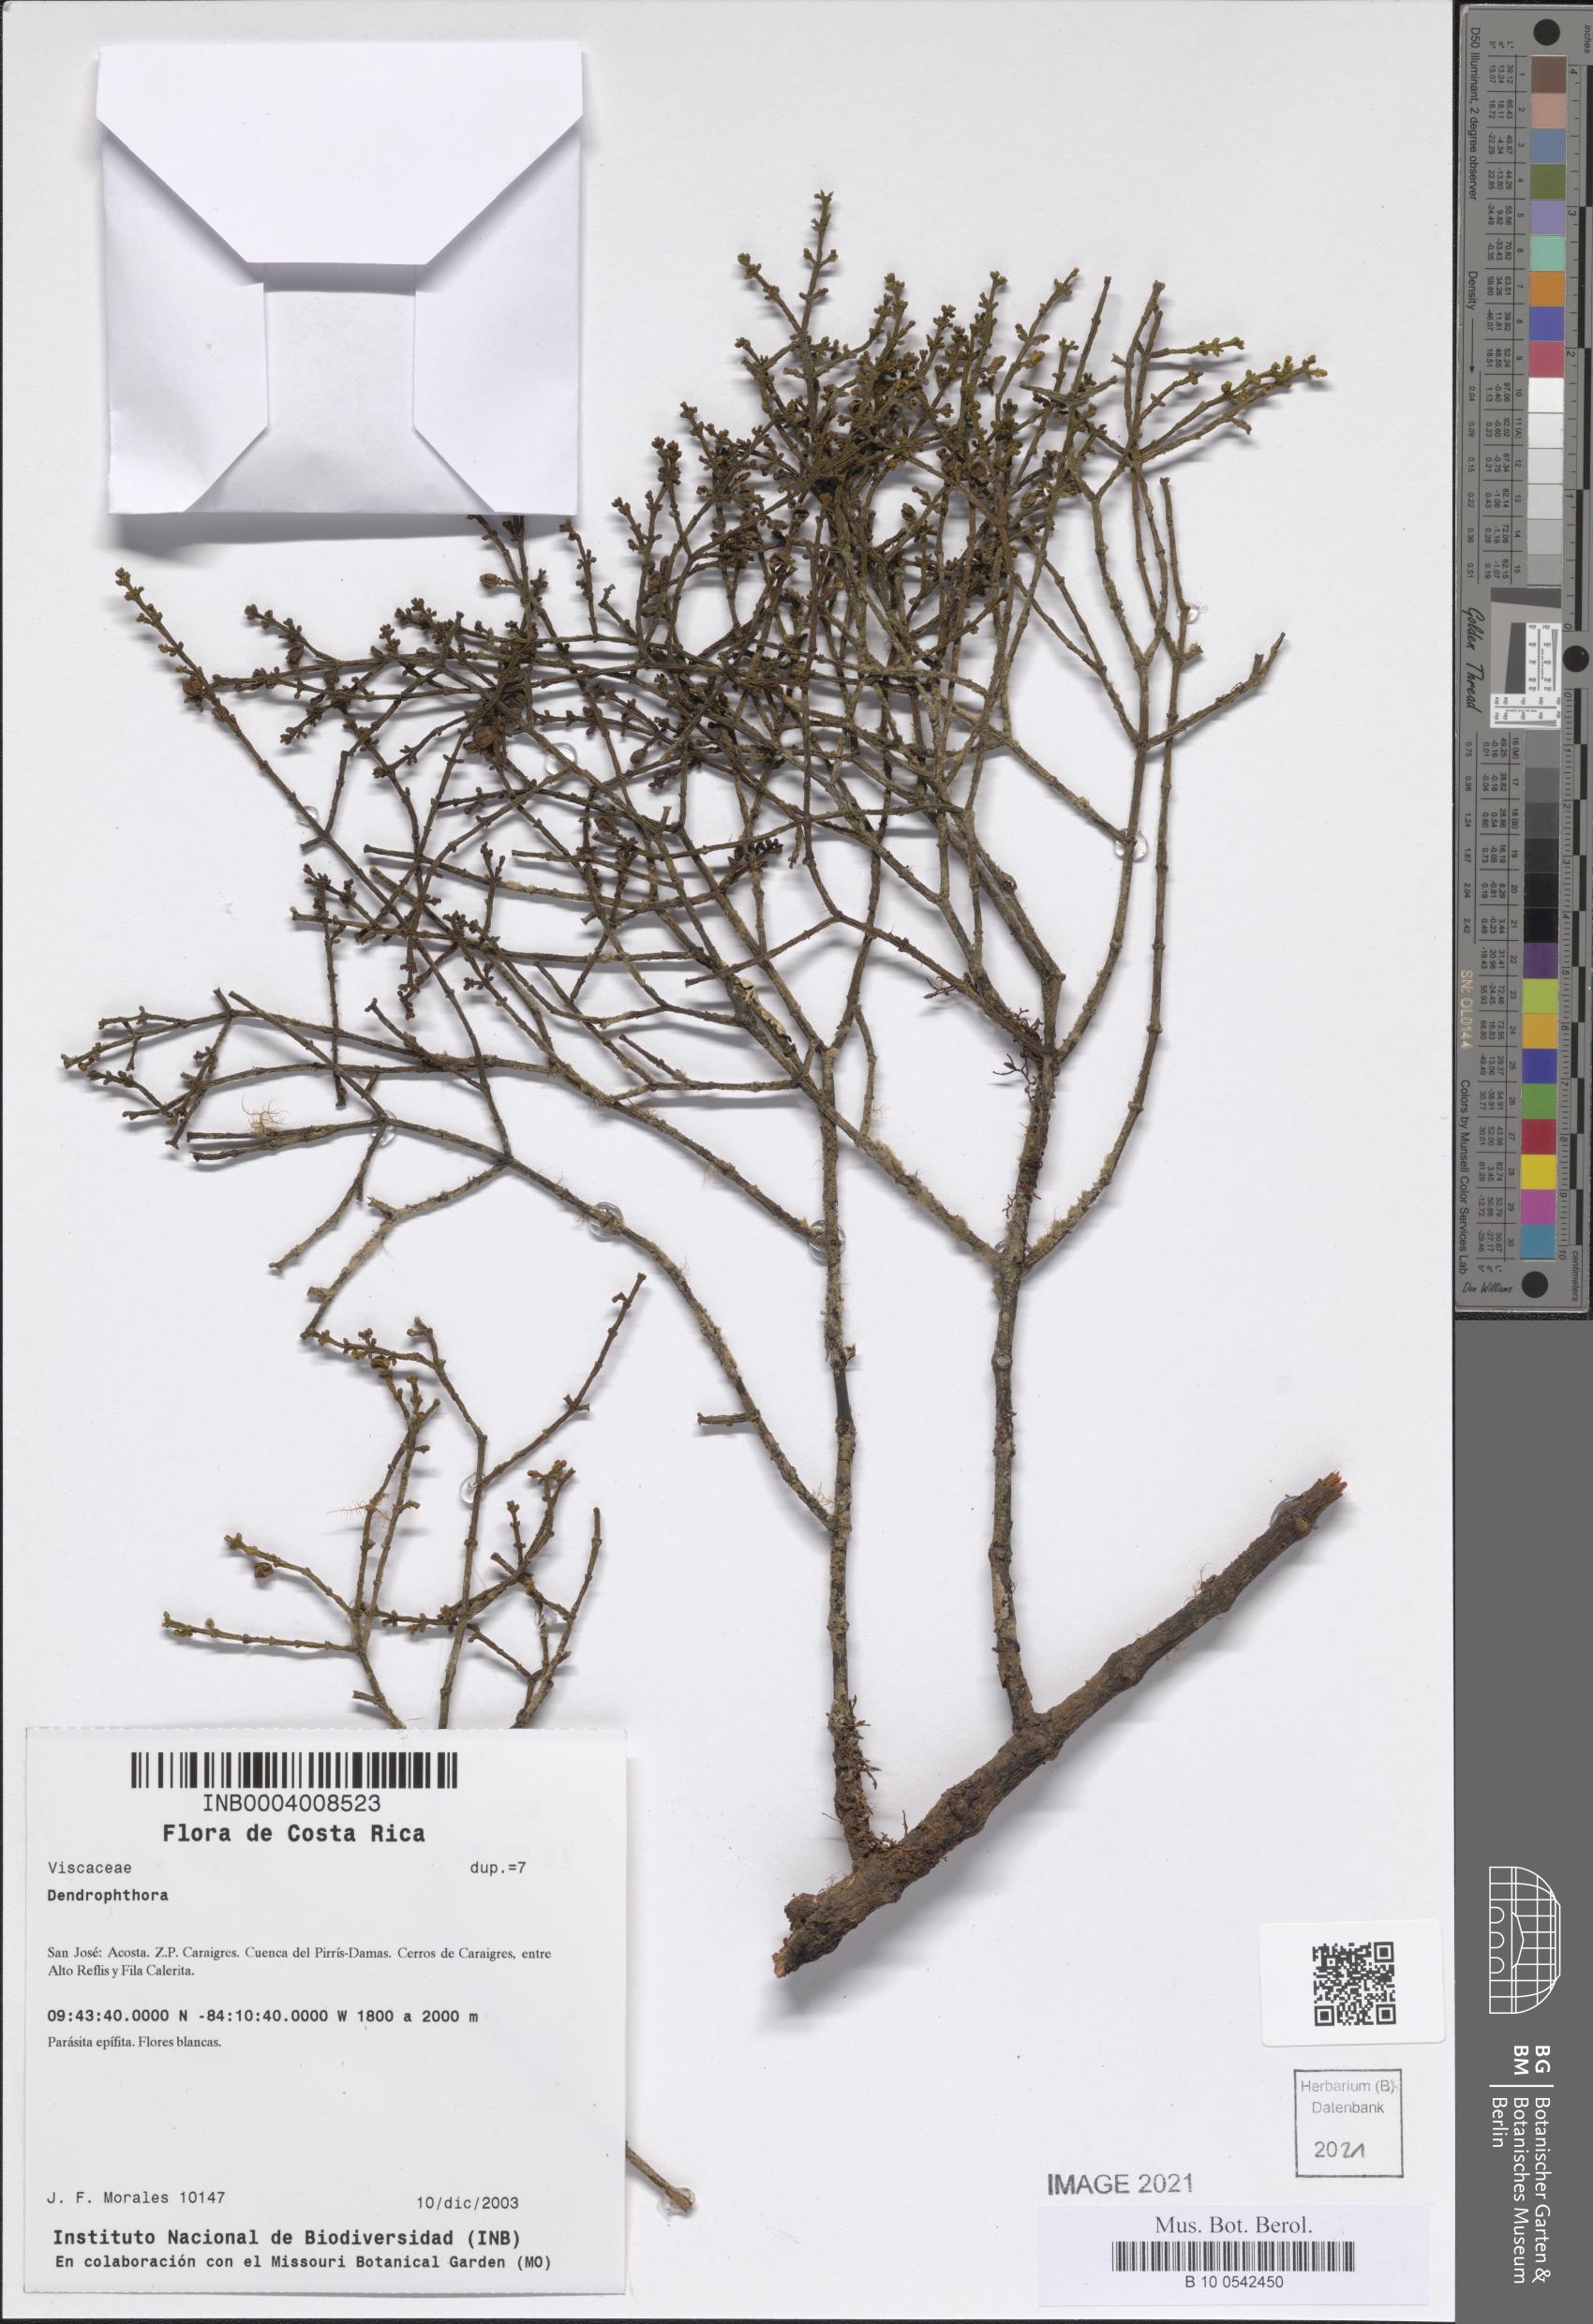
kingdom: Plantae
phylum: Tracheophyta
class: Magnoliopsida
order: Santalales
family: Viscaceae
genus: Dendrophthora
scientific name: Dendrophthora
